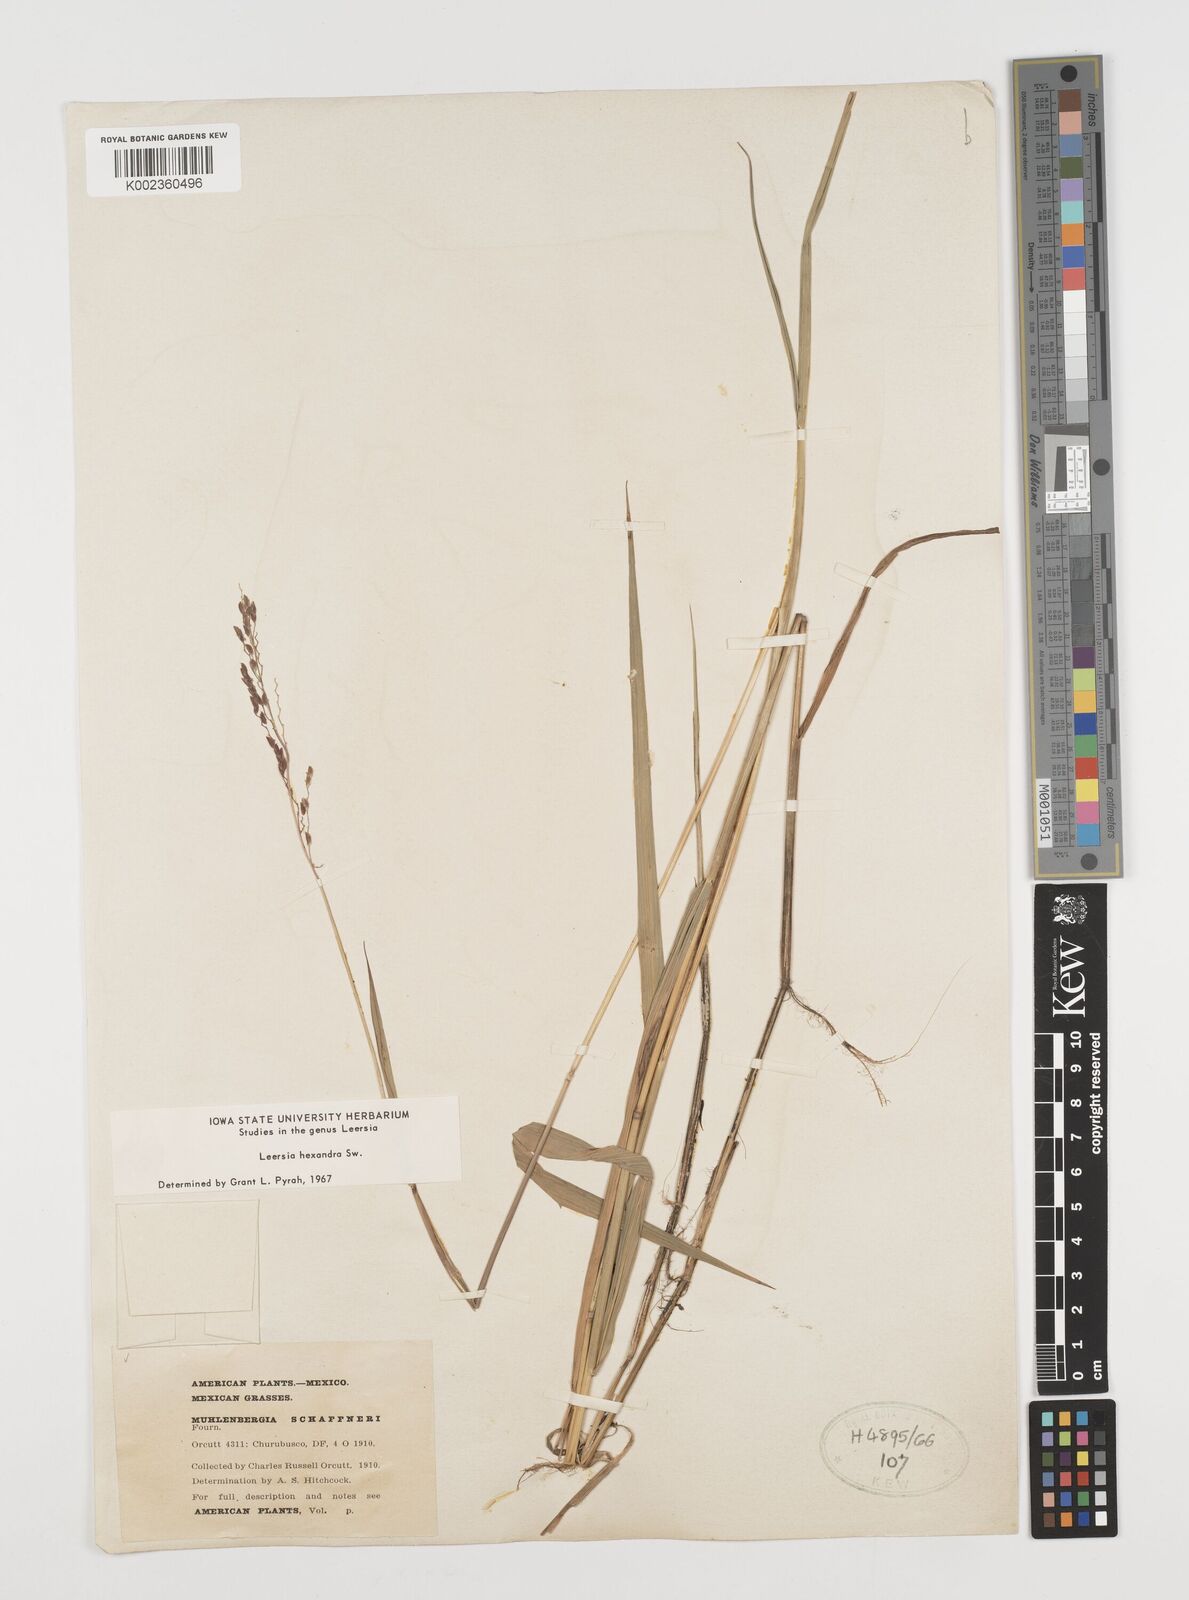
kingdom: Plantae
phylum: Tracheophyta
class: Liliopsida
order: Poales
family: Poaceae
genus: Leersia
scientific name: Leersia hexandra
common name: Southern cut grass
